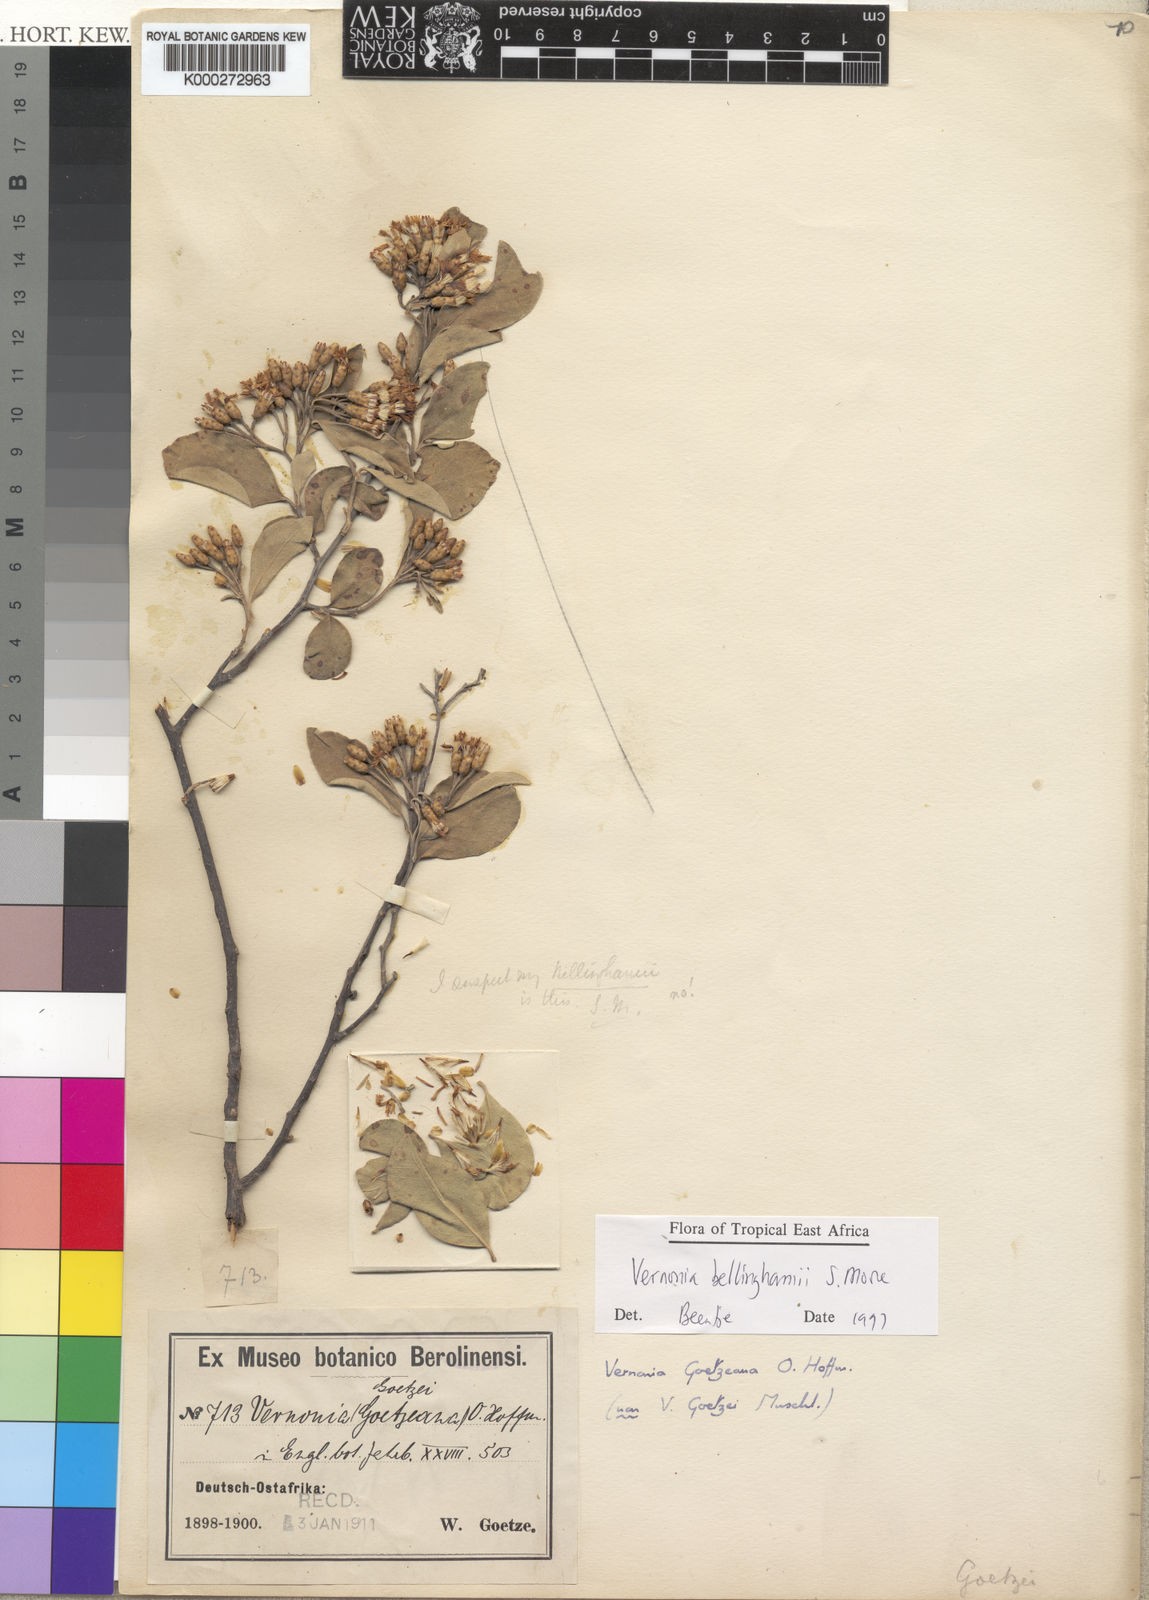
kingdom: Plantae
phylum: Tracheophyta
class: Magnoliopsida
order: Asterales
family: Asteraceae
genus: Gymnanthemum
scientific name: Gymnanthemum bellinghamii
